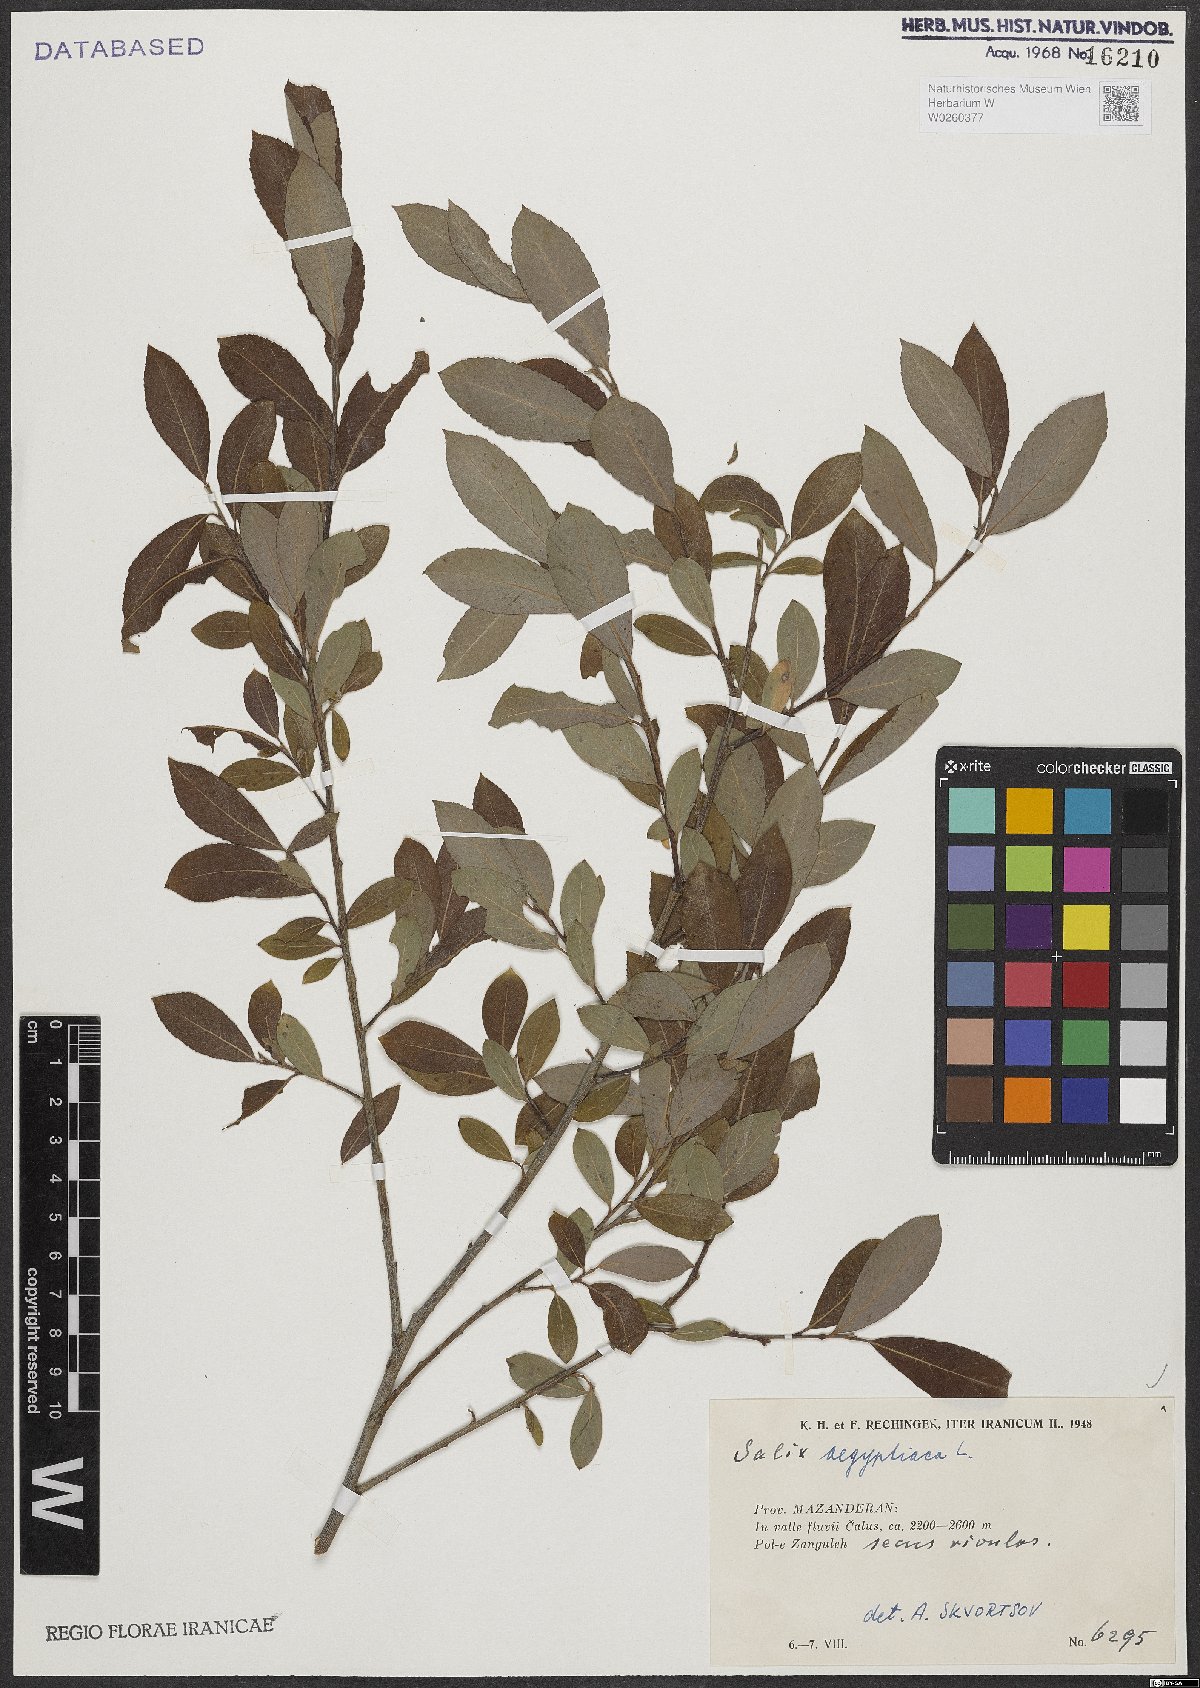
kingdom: Plantae
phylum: Tracheophyta
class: Magnoliopsida
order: Malpighiales
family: Salicaceae
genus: Salix
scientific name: Salix aegyptiaca
